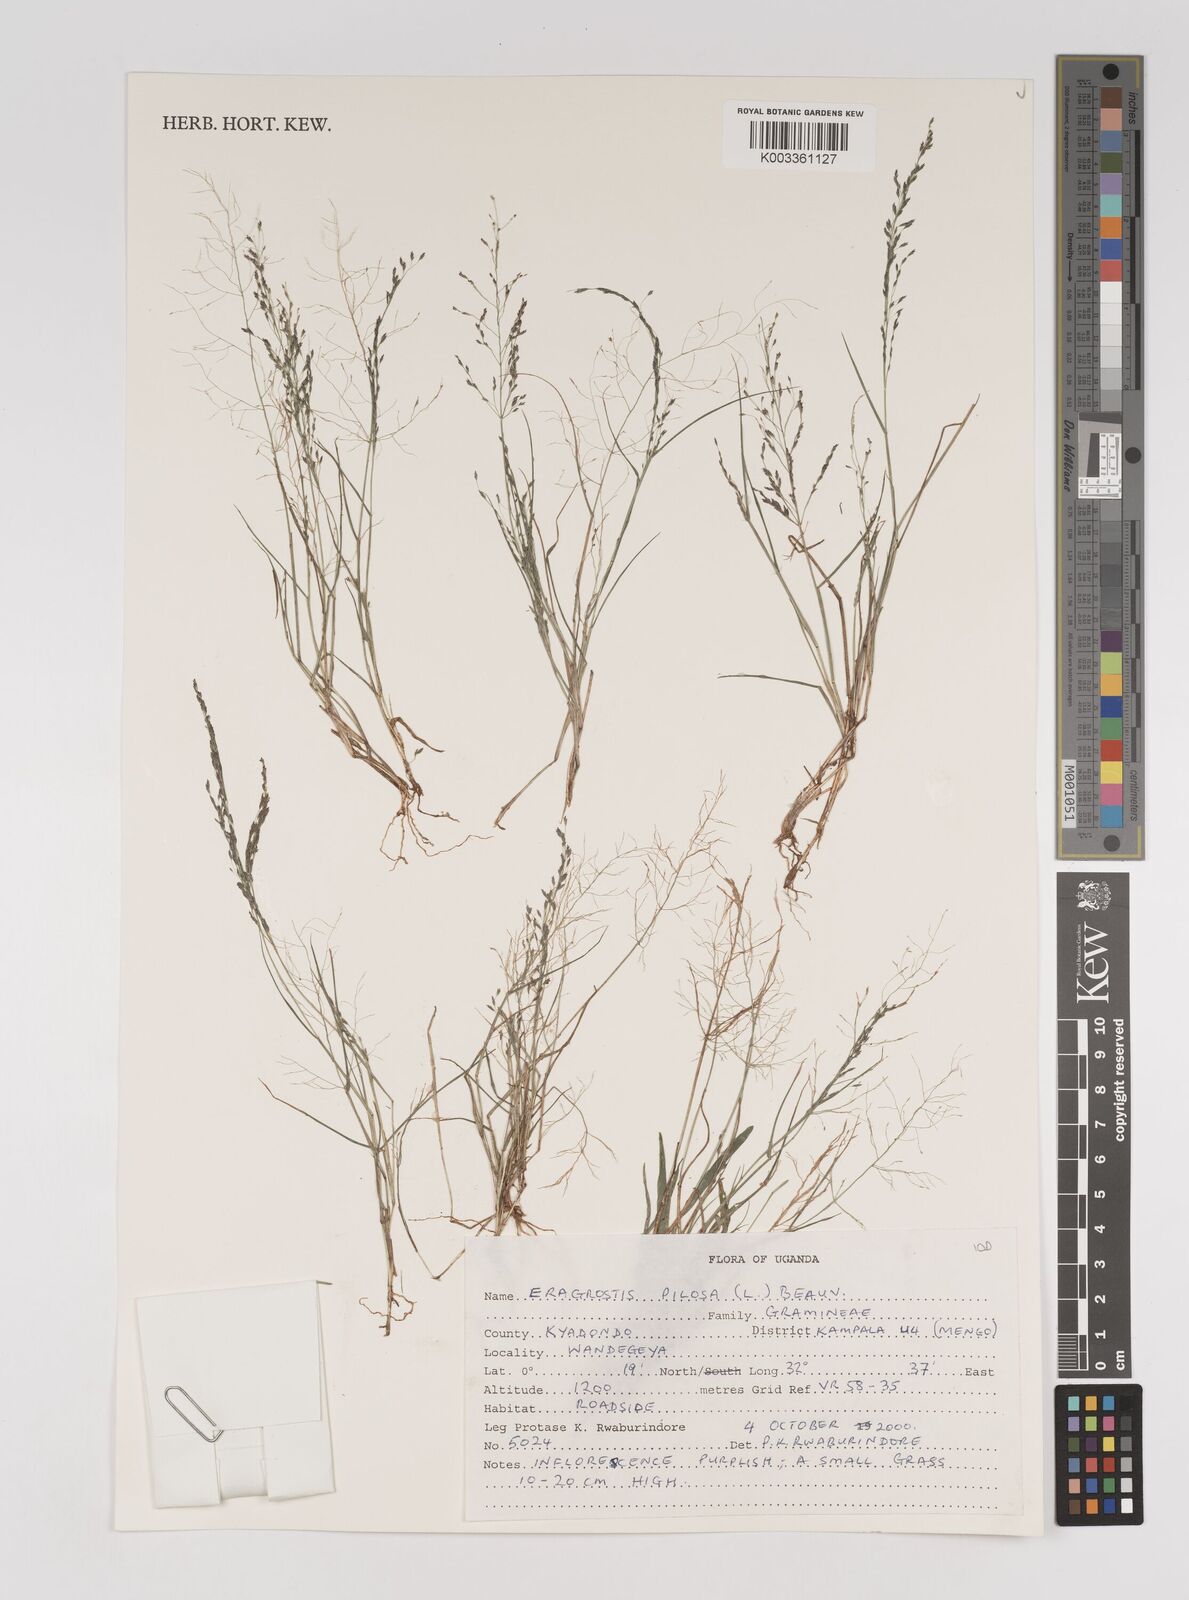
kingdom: Plantae
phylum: Tracheophyta
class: Liliopsida
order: Poales
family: Poaceae
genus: Eragrostis
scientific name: Eragrostis pilosa
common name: Indian lovegrass
